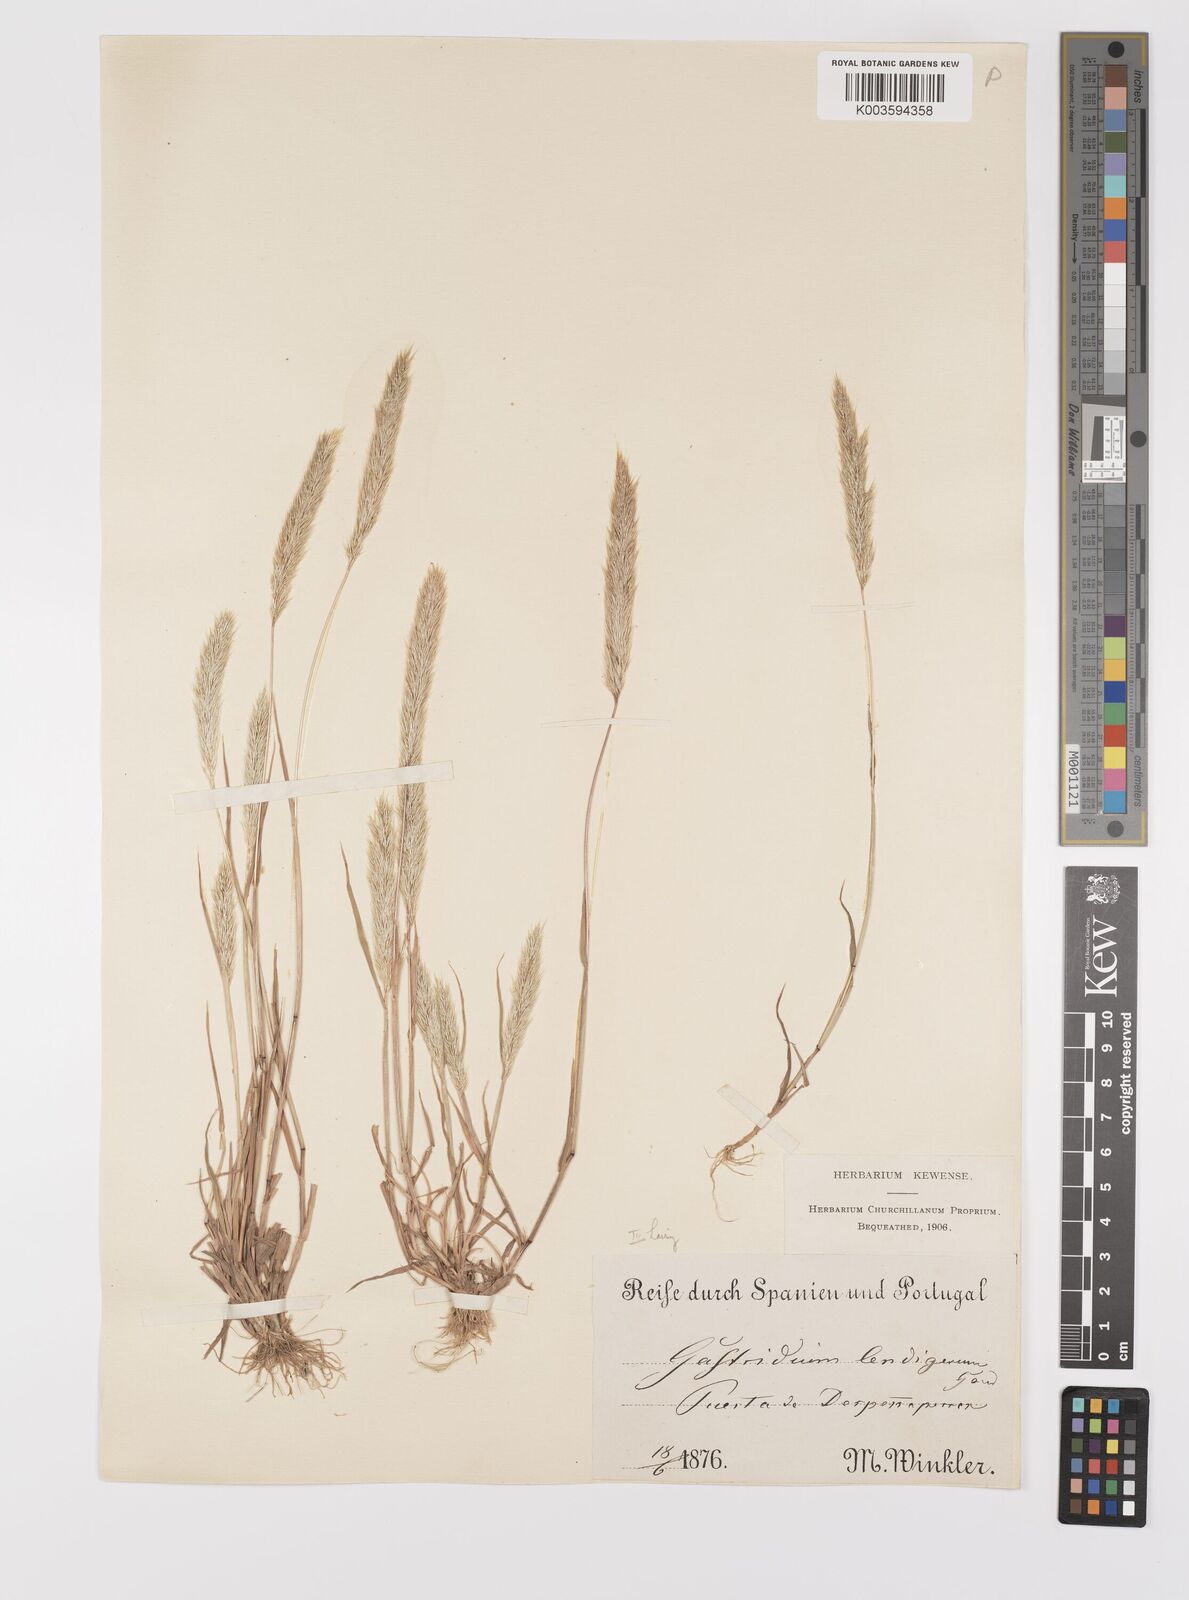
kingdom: Plantae
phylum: Tracheophyta
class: Liliopsida
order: Poales
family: Poaceae
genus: Gastridium
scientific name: Gastridium phleoides
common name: Nit grass
